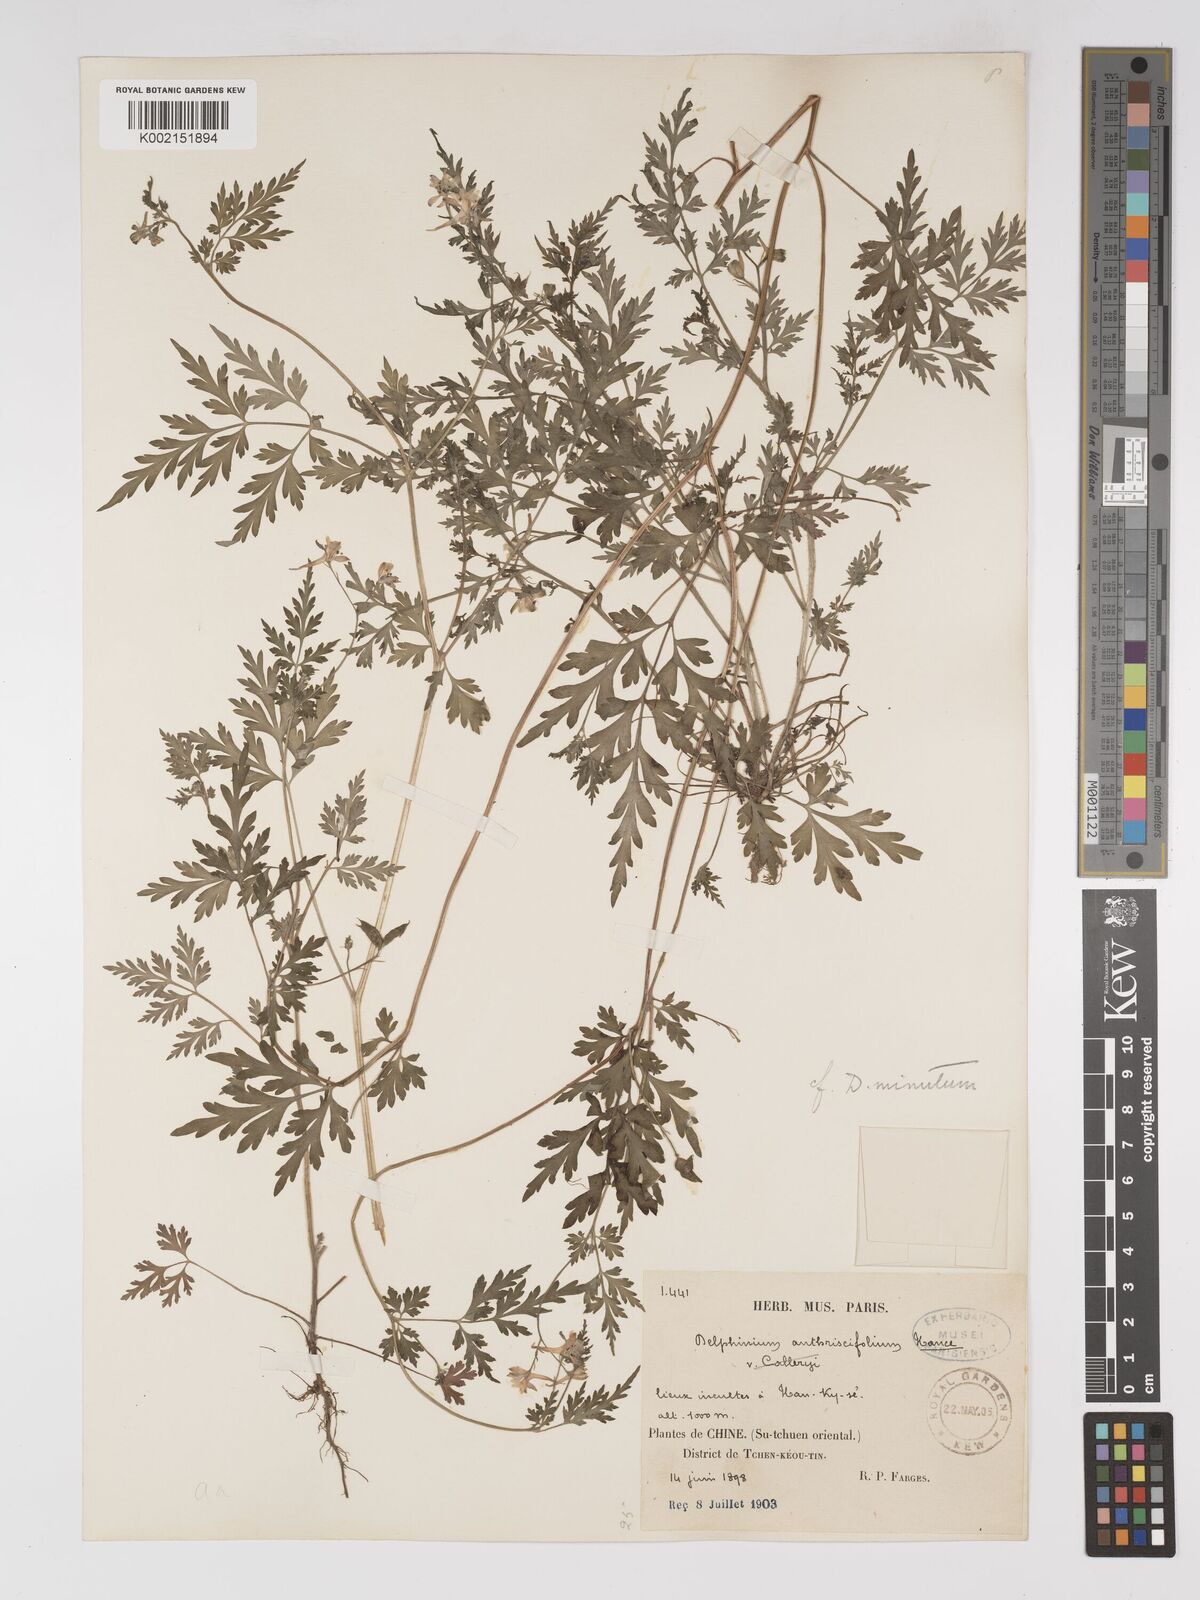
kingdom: Plantae
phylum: Tracheophyta
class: Magnoliopsida
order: Ranunculales
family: Ranunculaceae
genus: Delphinium
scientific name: Delphinium anthriscifolium
